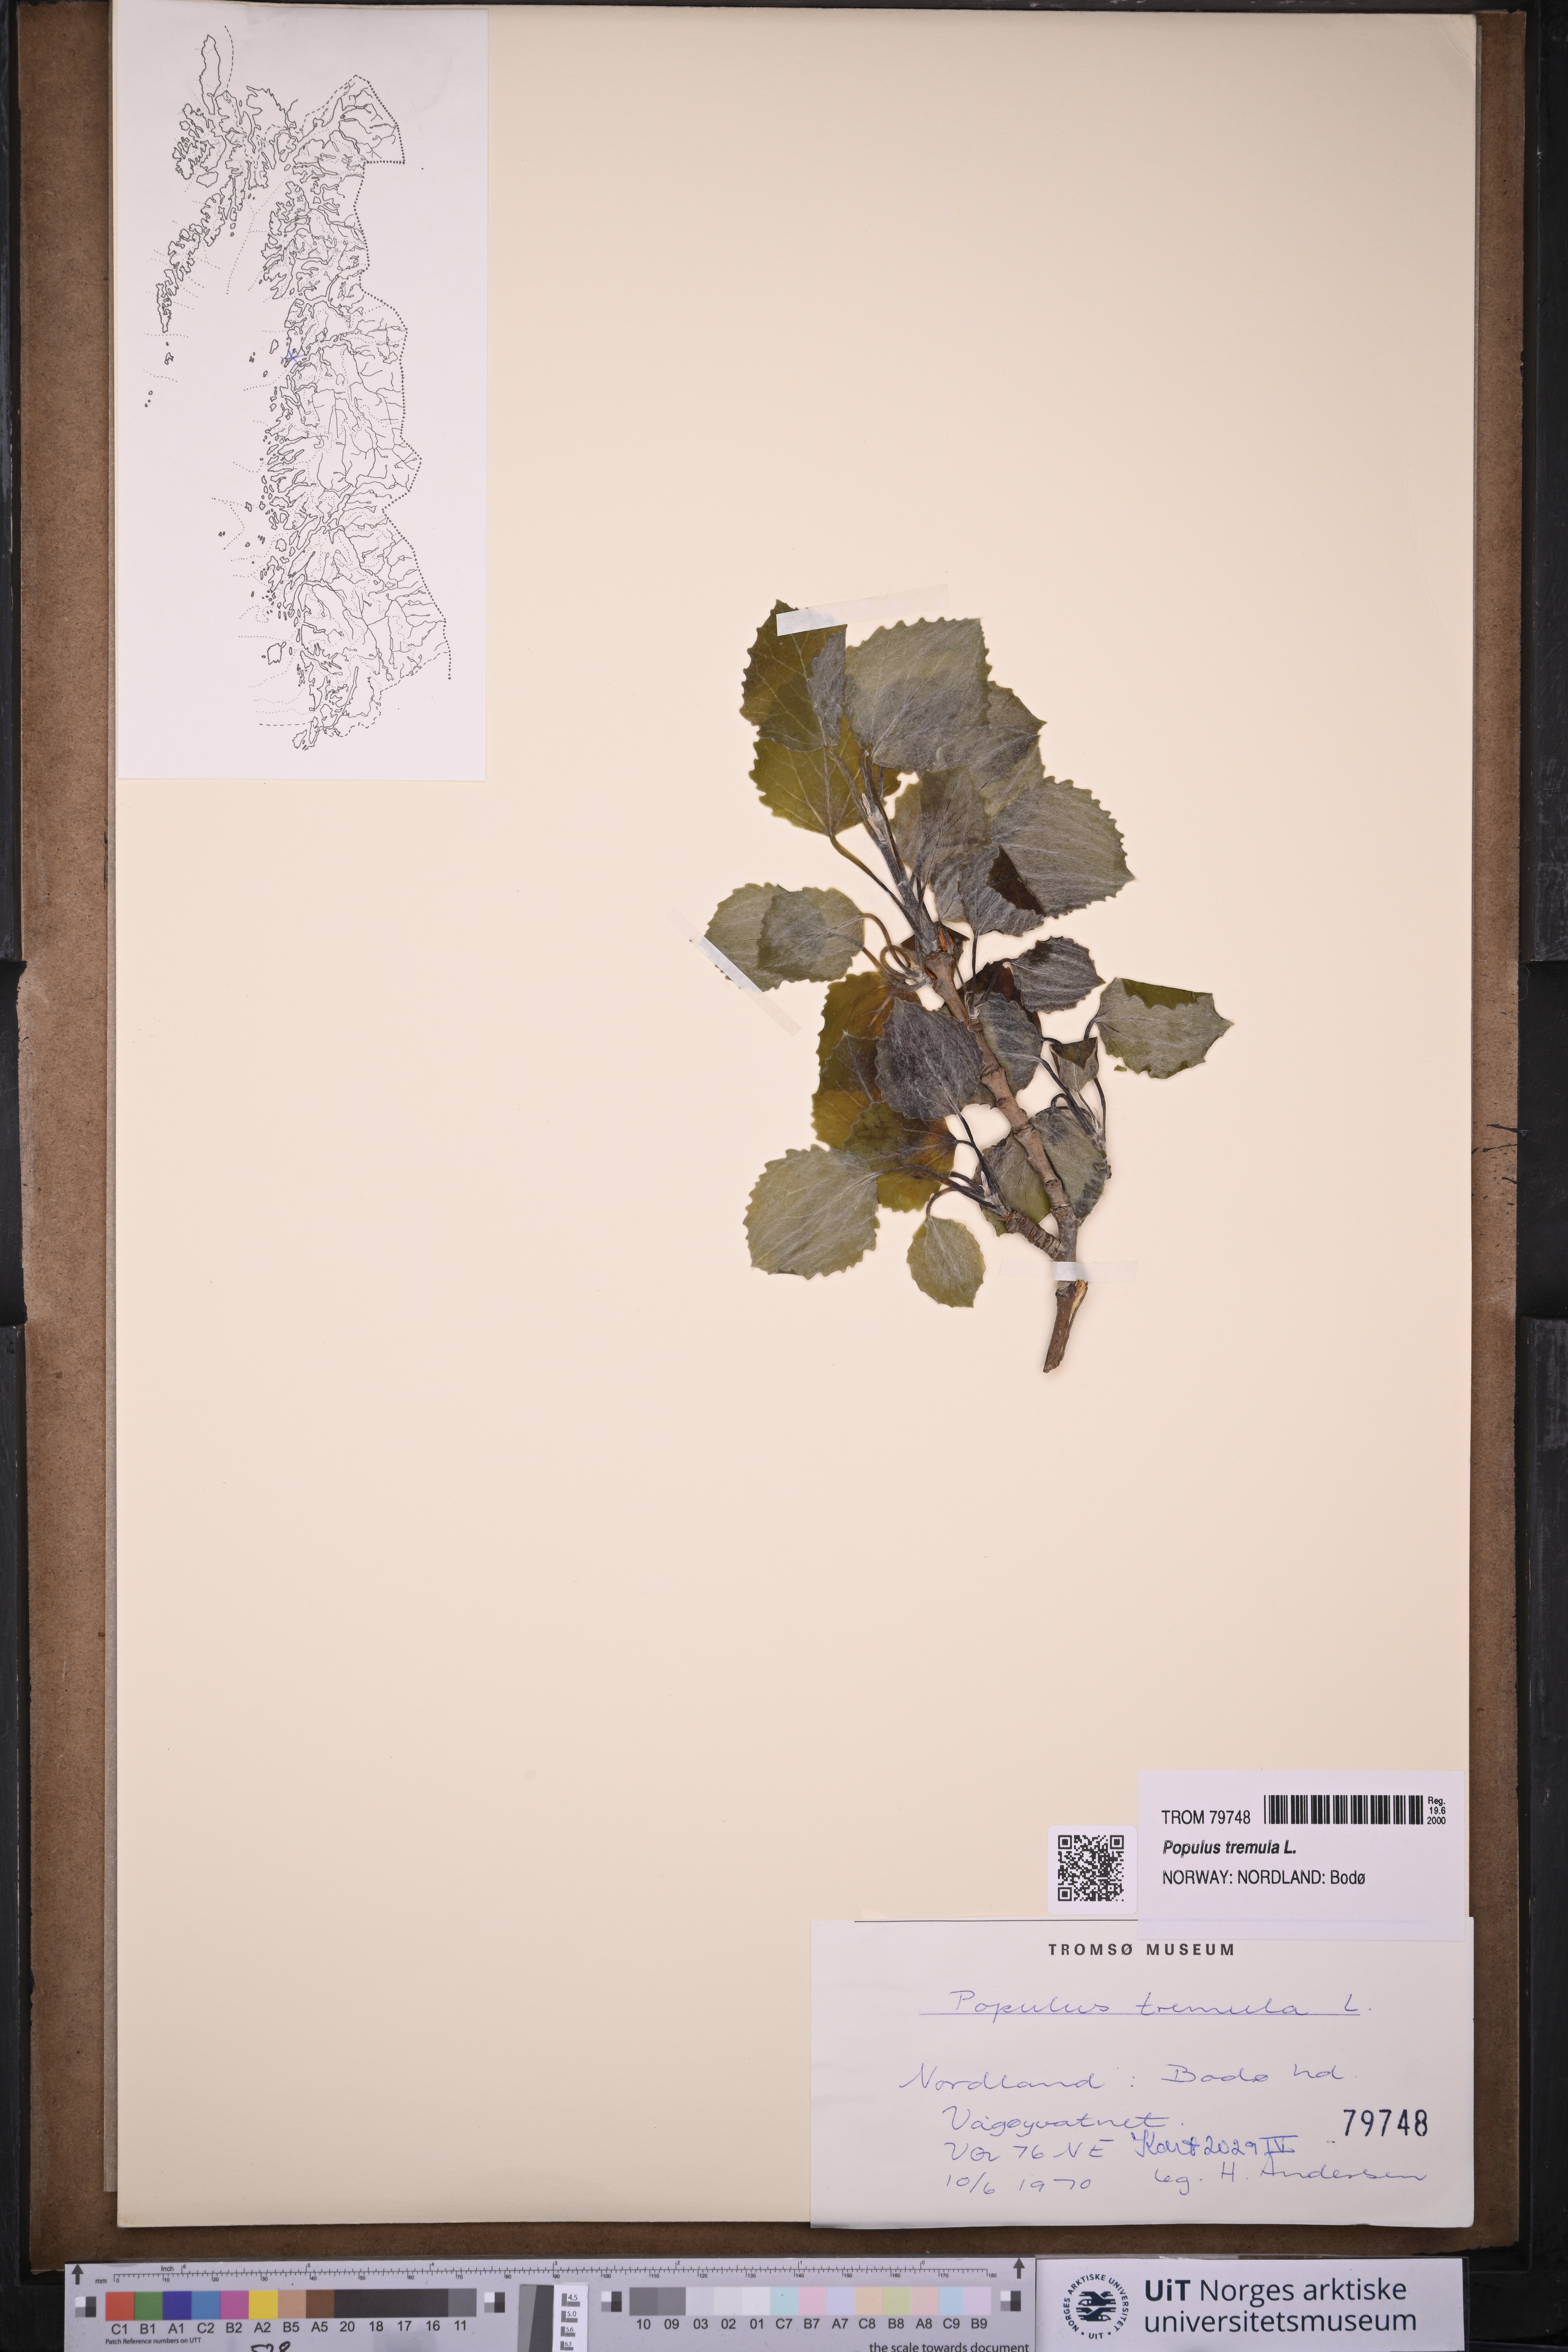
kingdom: Plantae
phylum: Tracheophyta
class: Magnoliopsida
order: Malpighiales
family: Salicaceae
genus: Populus
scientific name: Populus tremula
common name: European aspen
